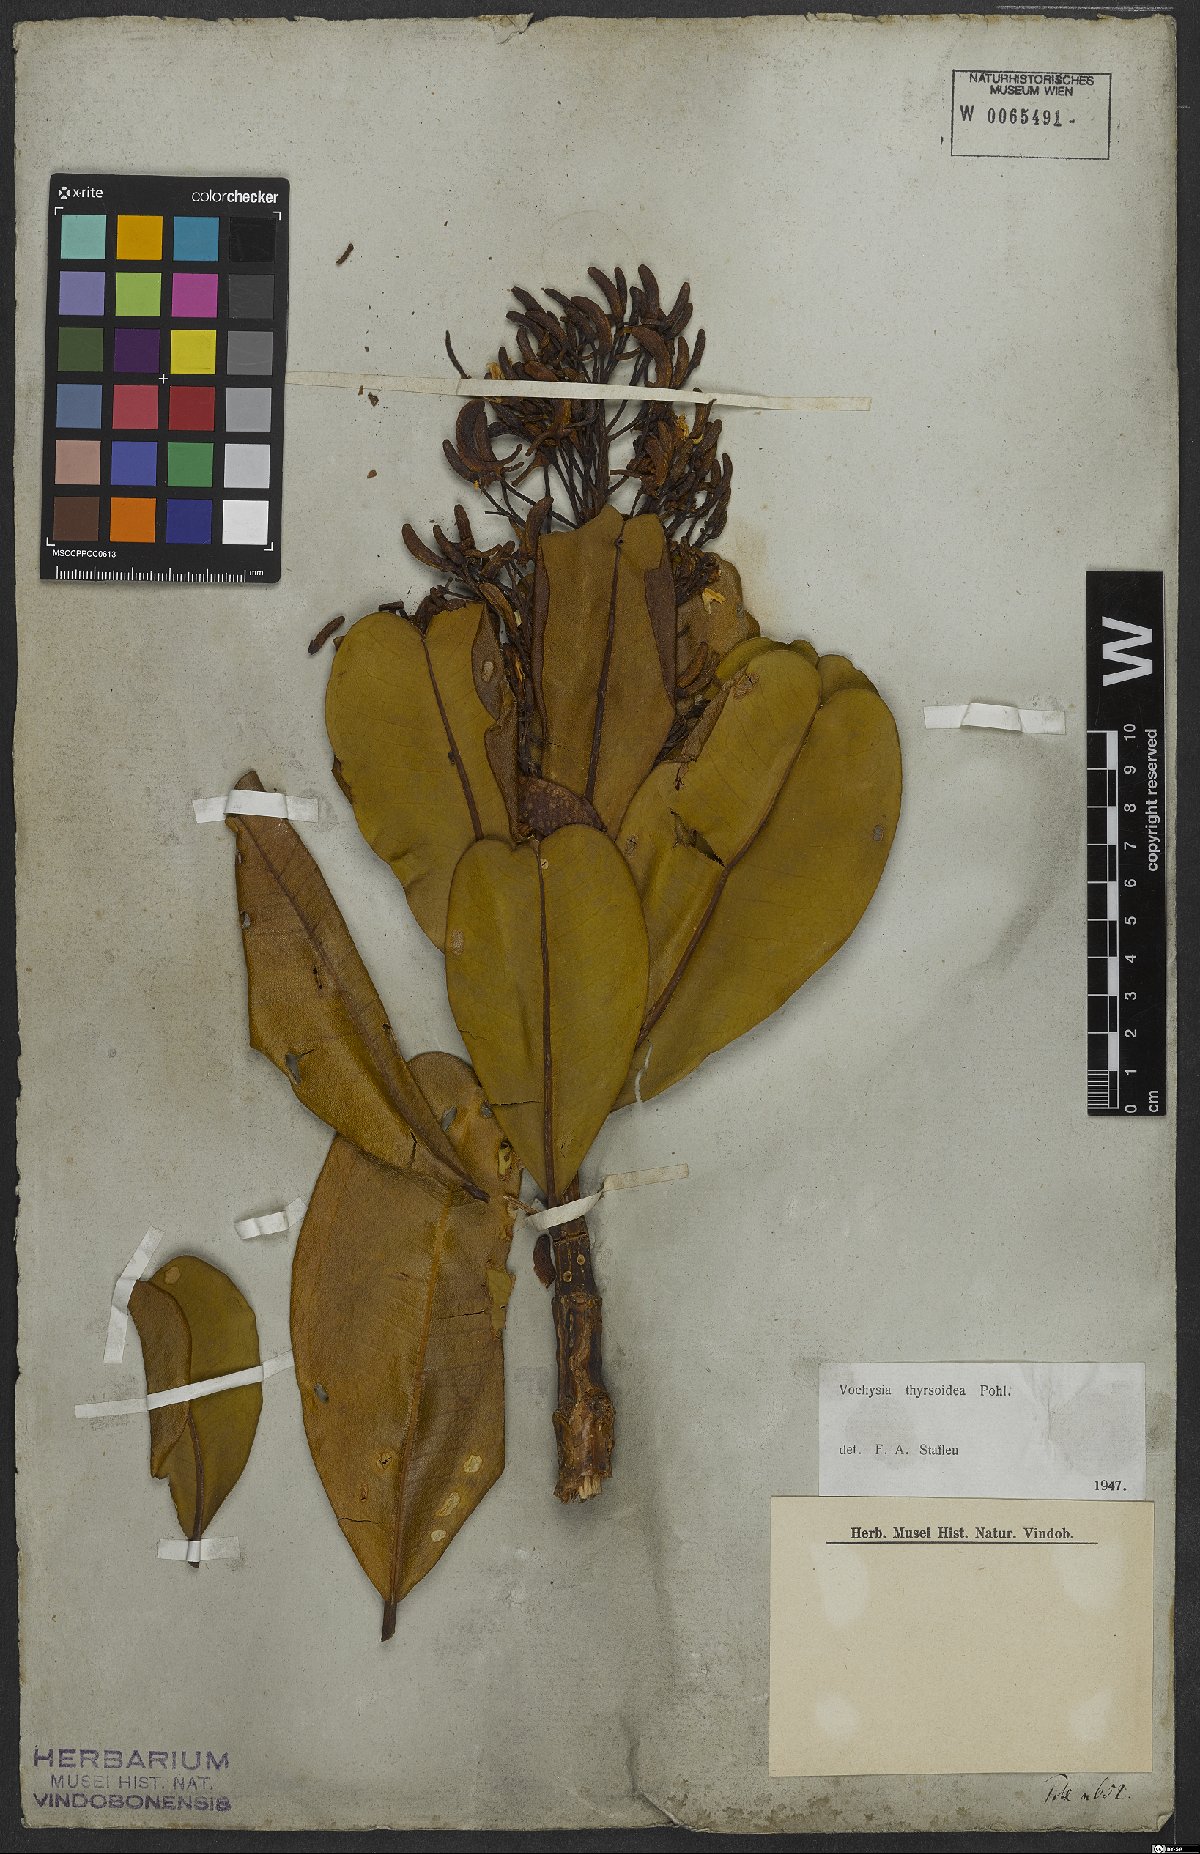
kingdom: Plantae
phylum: Tracheophyta
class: Magnoliopsida
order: Myrtales
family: Vochysiaceae
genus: Vochysia
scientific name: Vochysia thyrsoidea
